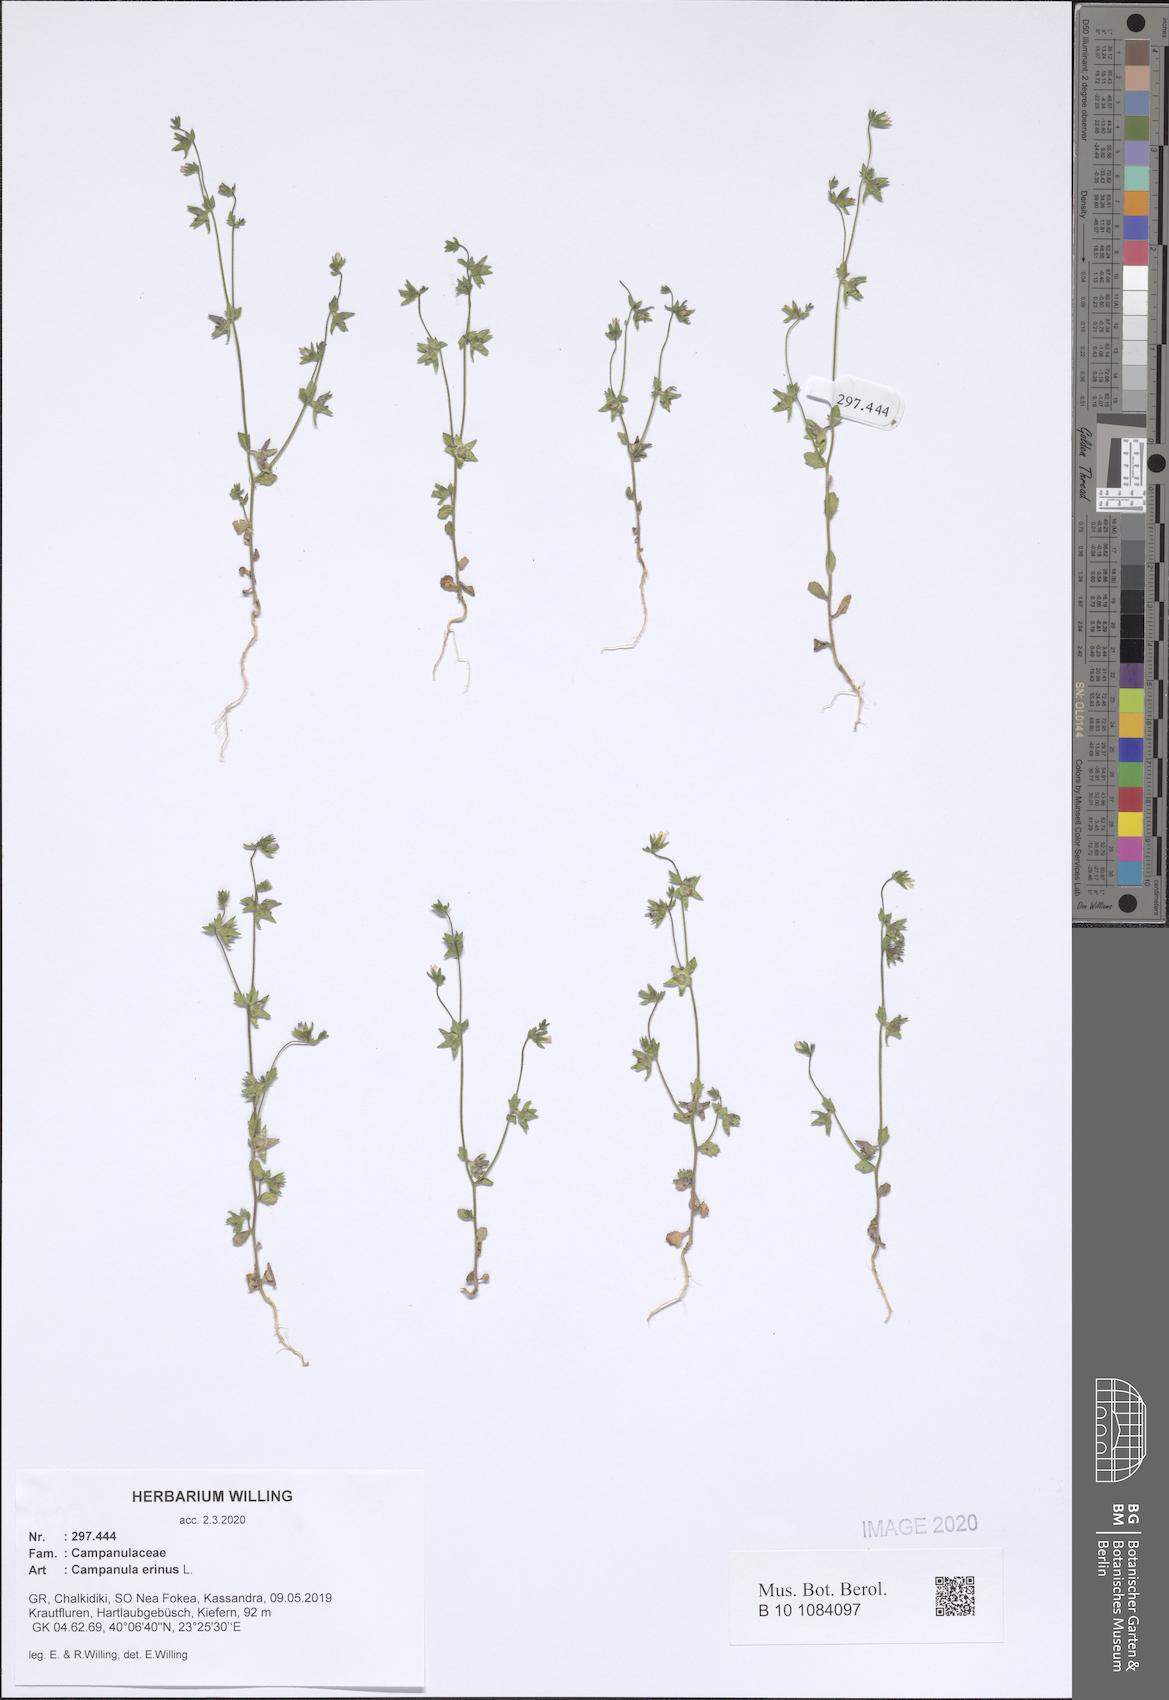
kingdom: Plantae
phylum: Tracheophyta
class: Magnoliopsida
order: Asterales
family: Campanulaceae
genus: Campanula
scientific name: Campanula erinus
